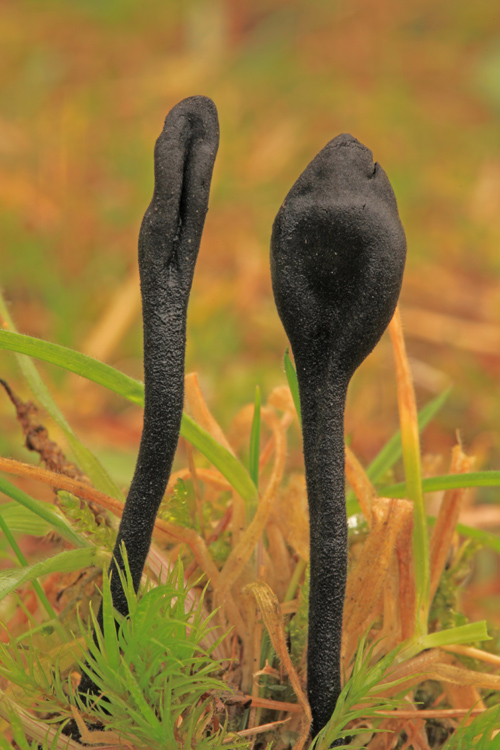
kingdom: Fungi
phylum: Ascomycota
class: Geoglossomycetes
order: Geoglossales
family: Geoglossaceae
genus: Trichoglossum
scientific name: Trichoglossum hirsutum
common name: håret jordtunge
